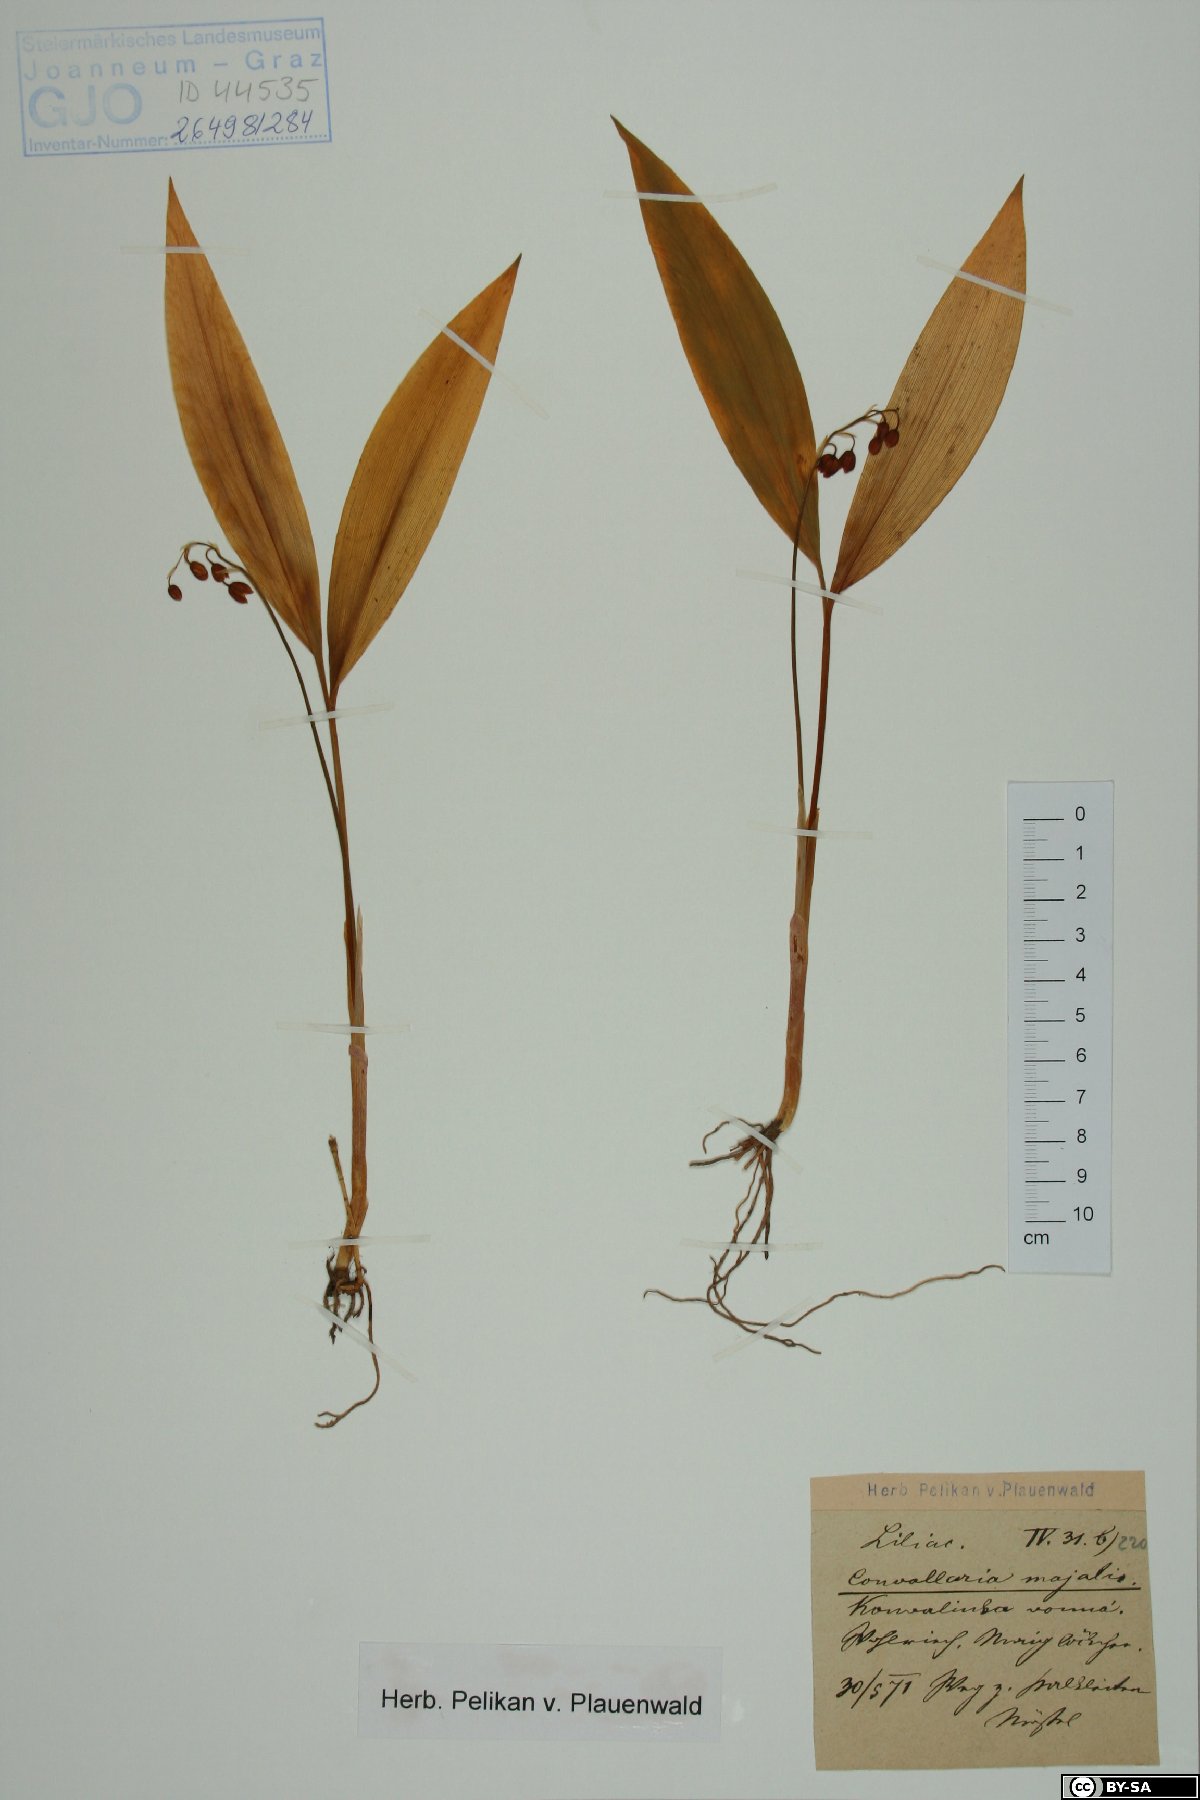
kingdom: Plantae
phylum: Tracheophyta
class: Liliopsida
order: Asparagales
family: Asparagaceae
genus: Convallaria
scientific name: Convallaria majalis
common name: Lily-of-the-valley
